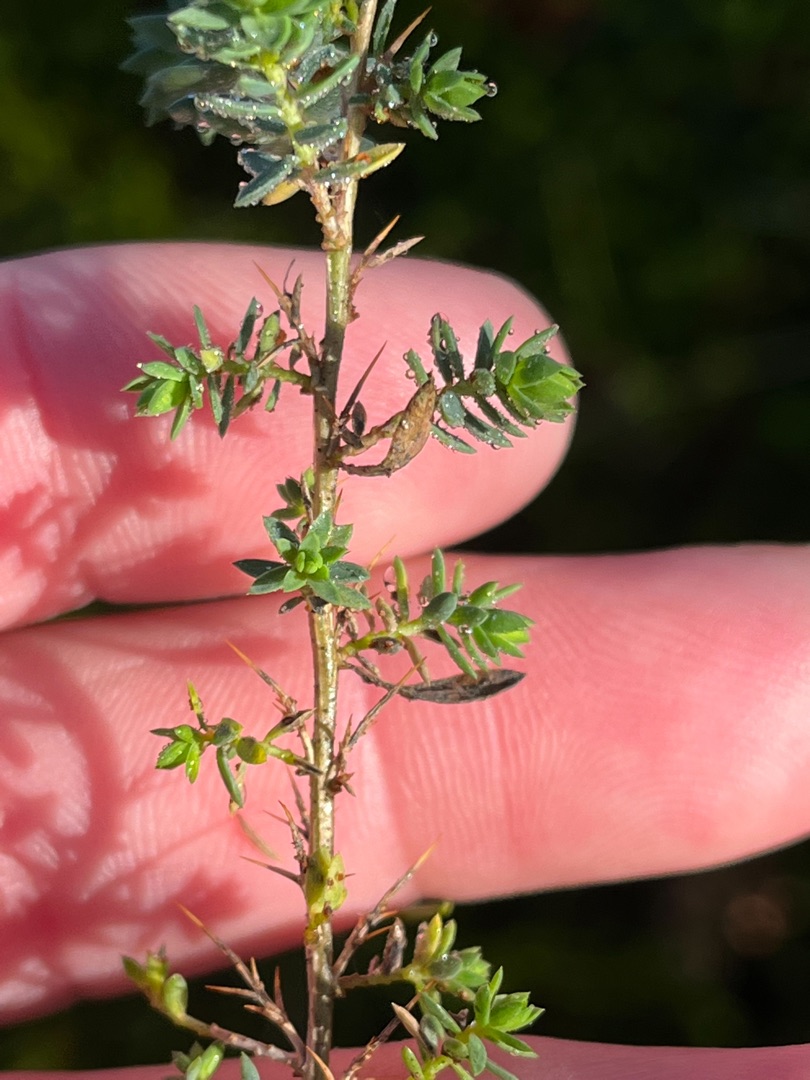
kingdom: Plantae
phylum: Tracheophyta
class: Magnoliopsida
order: Fabales
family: Fabaceae
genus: Genista
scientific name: Genista anglica
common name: Engelsk visse
